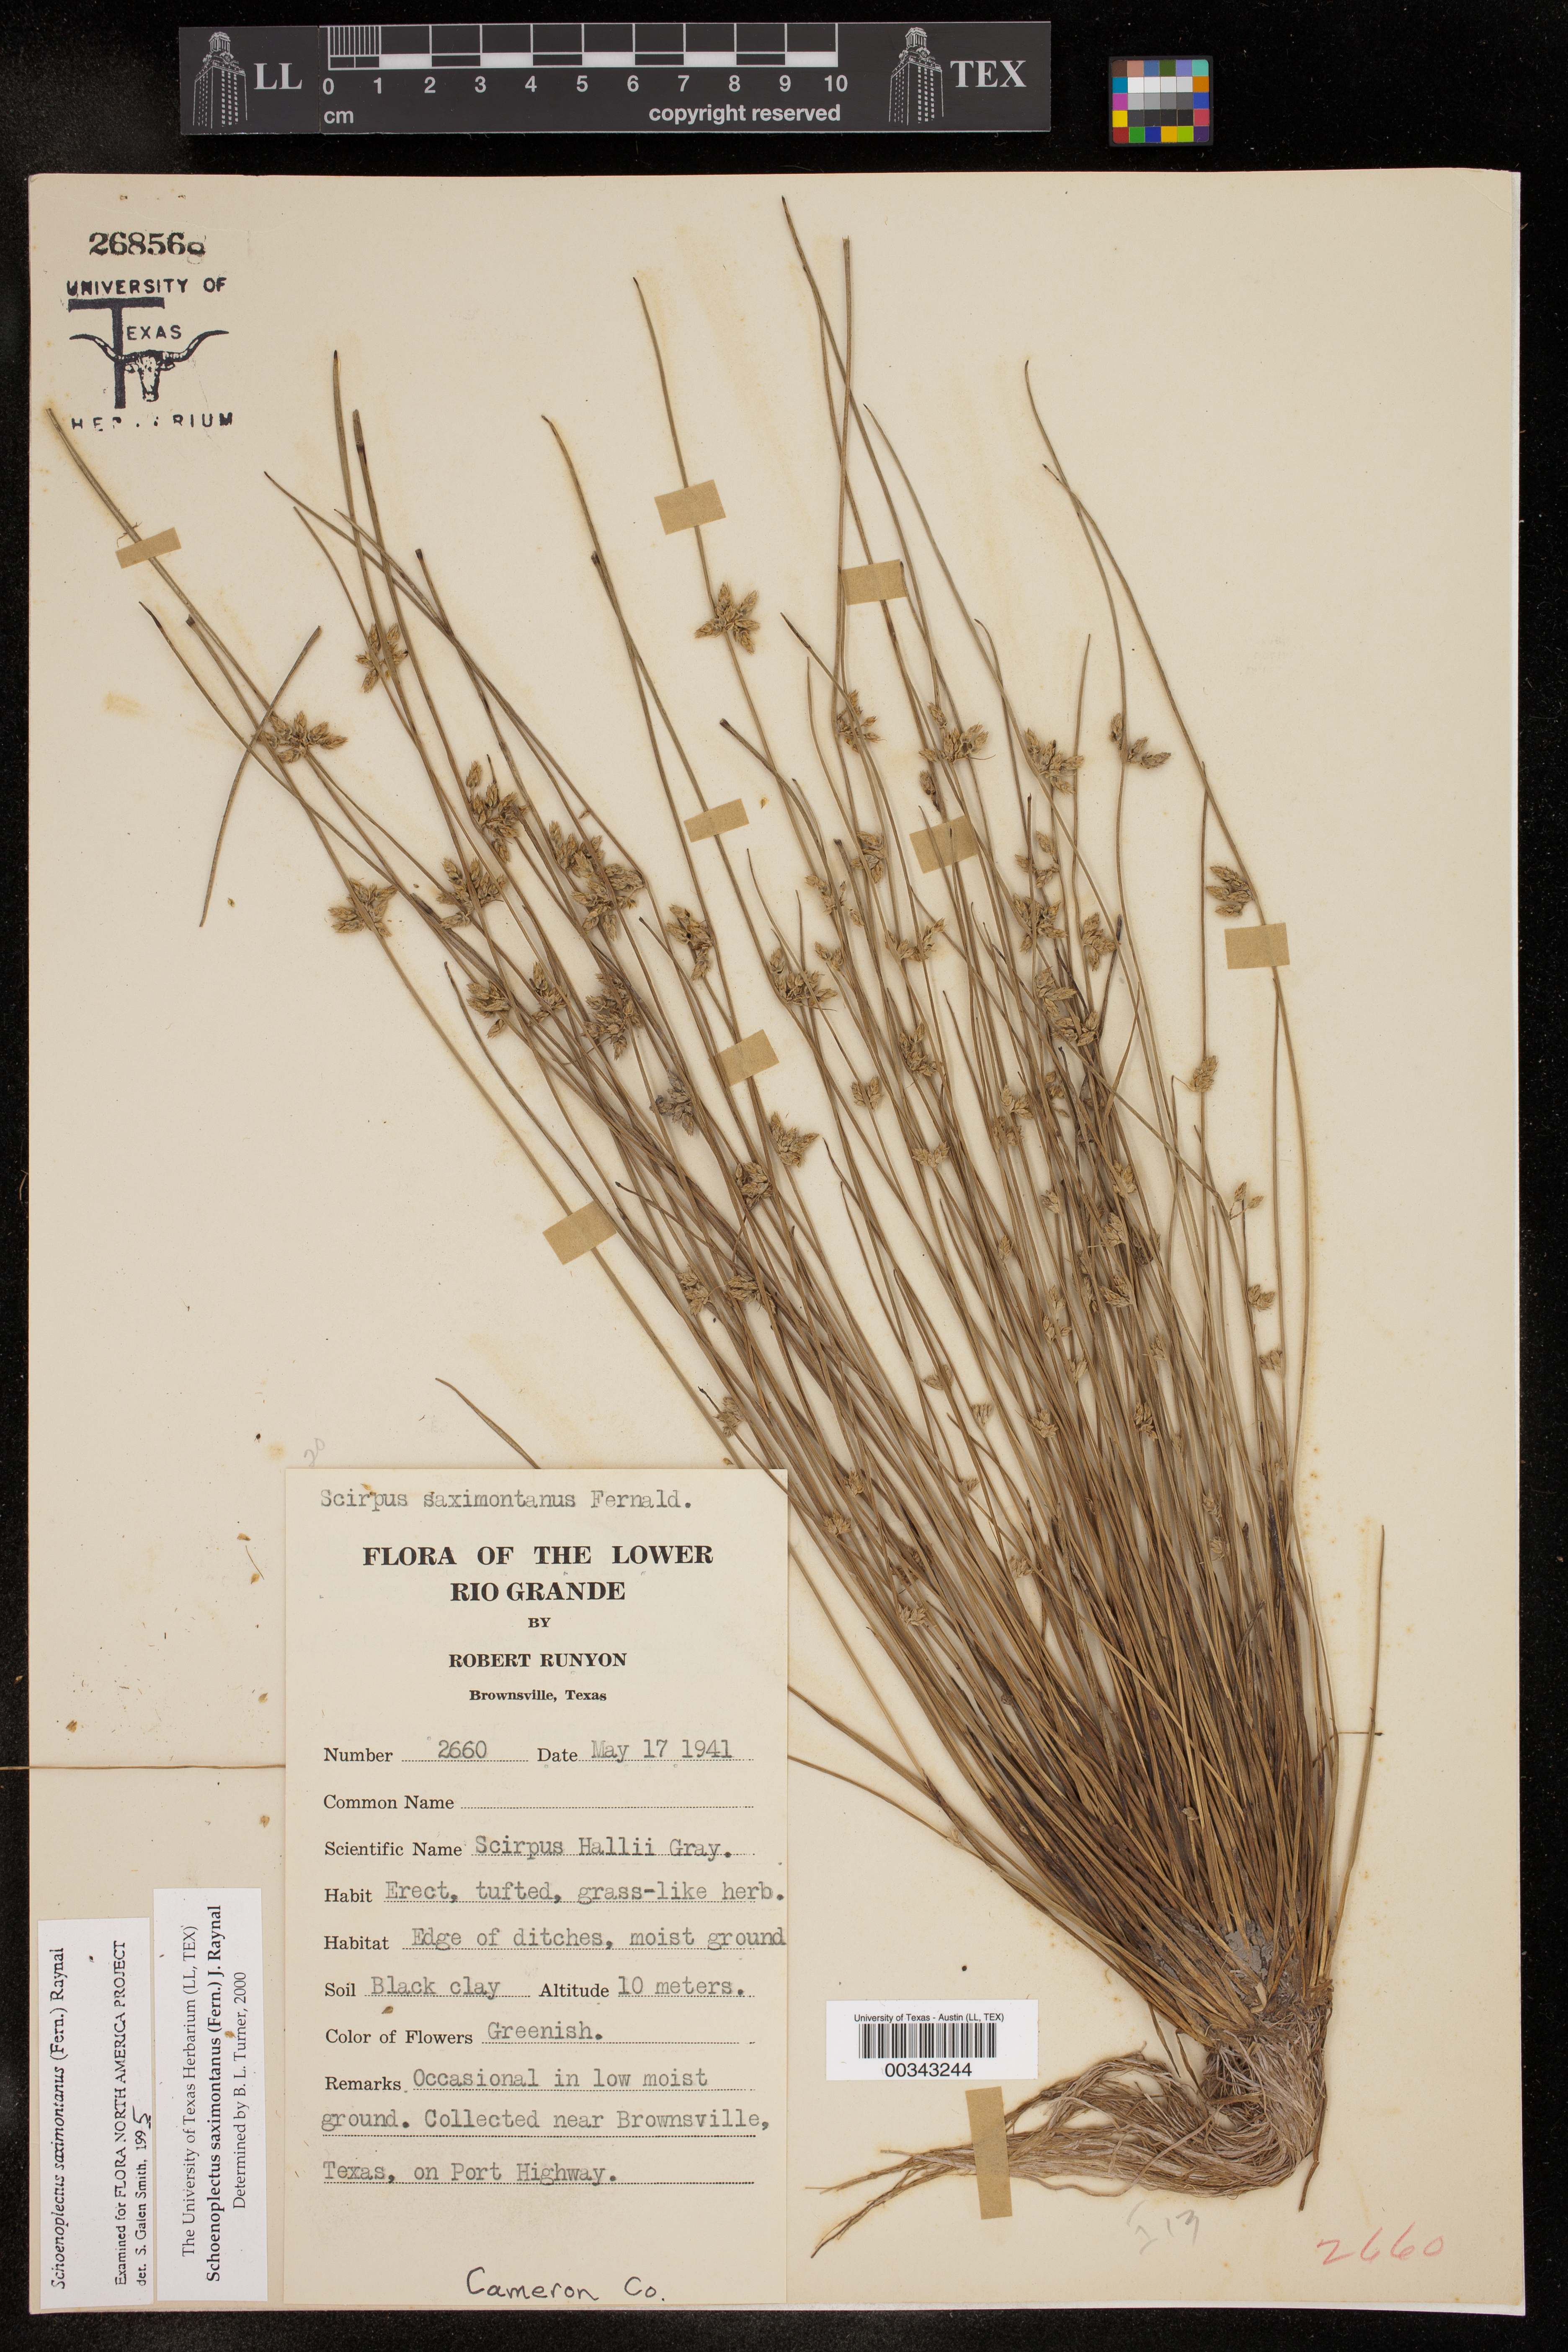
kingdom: Plantae
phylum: Tracheophyta
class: Liliopsida
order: Poales
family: Cyperaceae
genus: Schoenoplectiella
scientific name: Schoenoplectiella saximontana
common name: Rocky mountain clubrush
